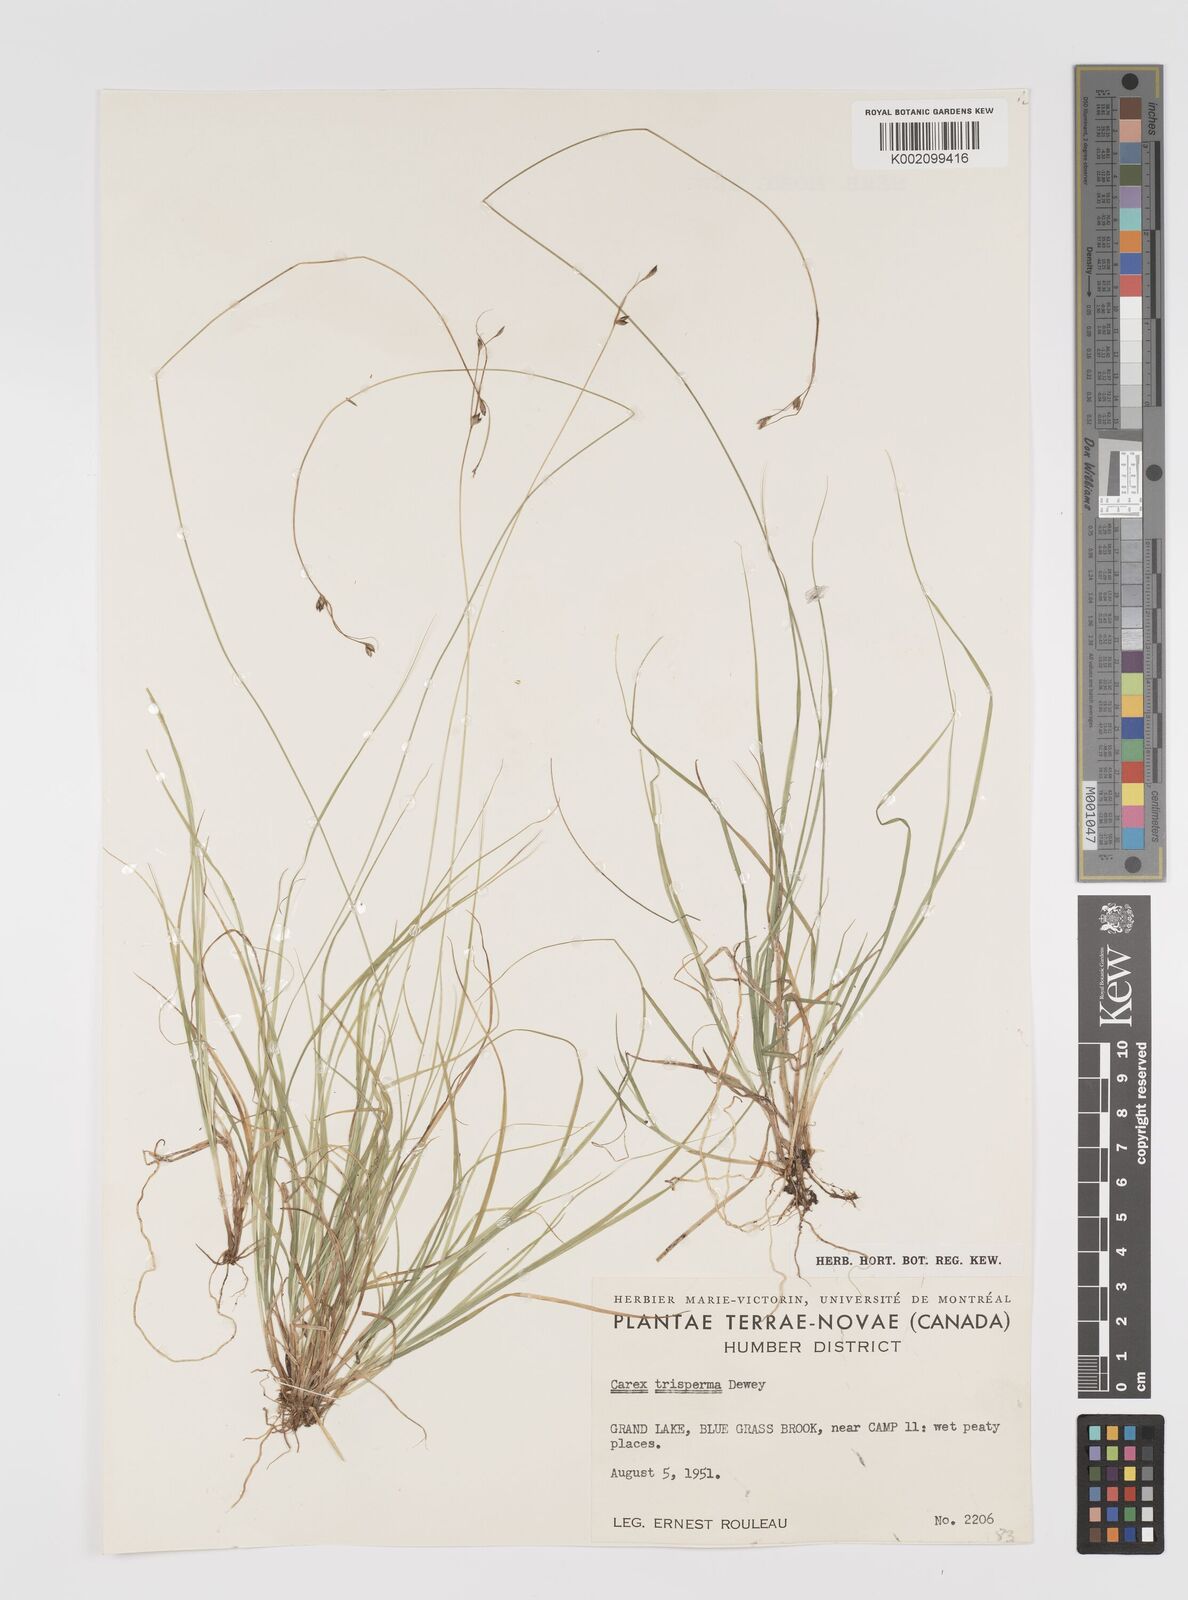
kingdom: Plantae
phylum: Tracheophyta
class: Liliopsida
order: Poales
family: Cyperaceae
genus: Carex
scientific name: Carex trisperma
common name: Three-seeded sedge
